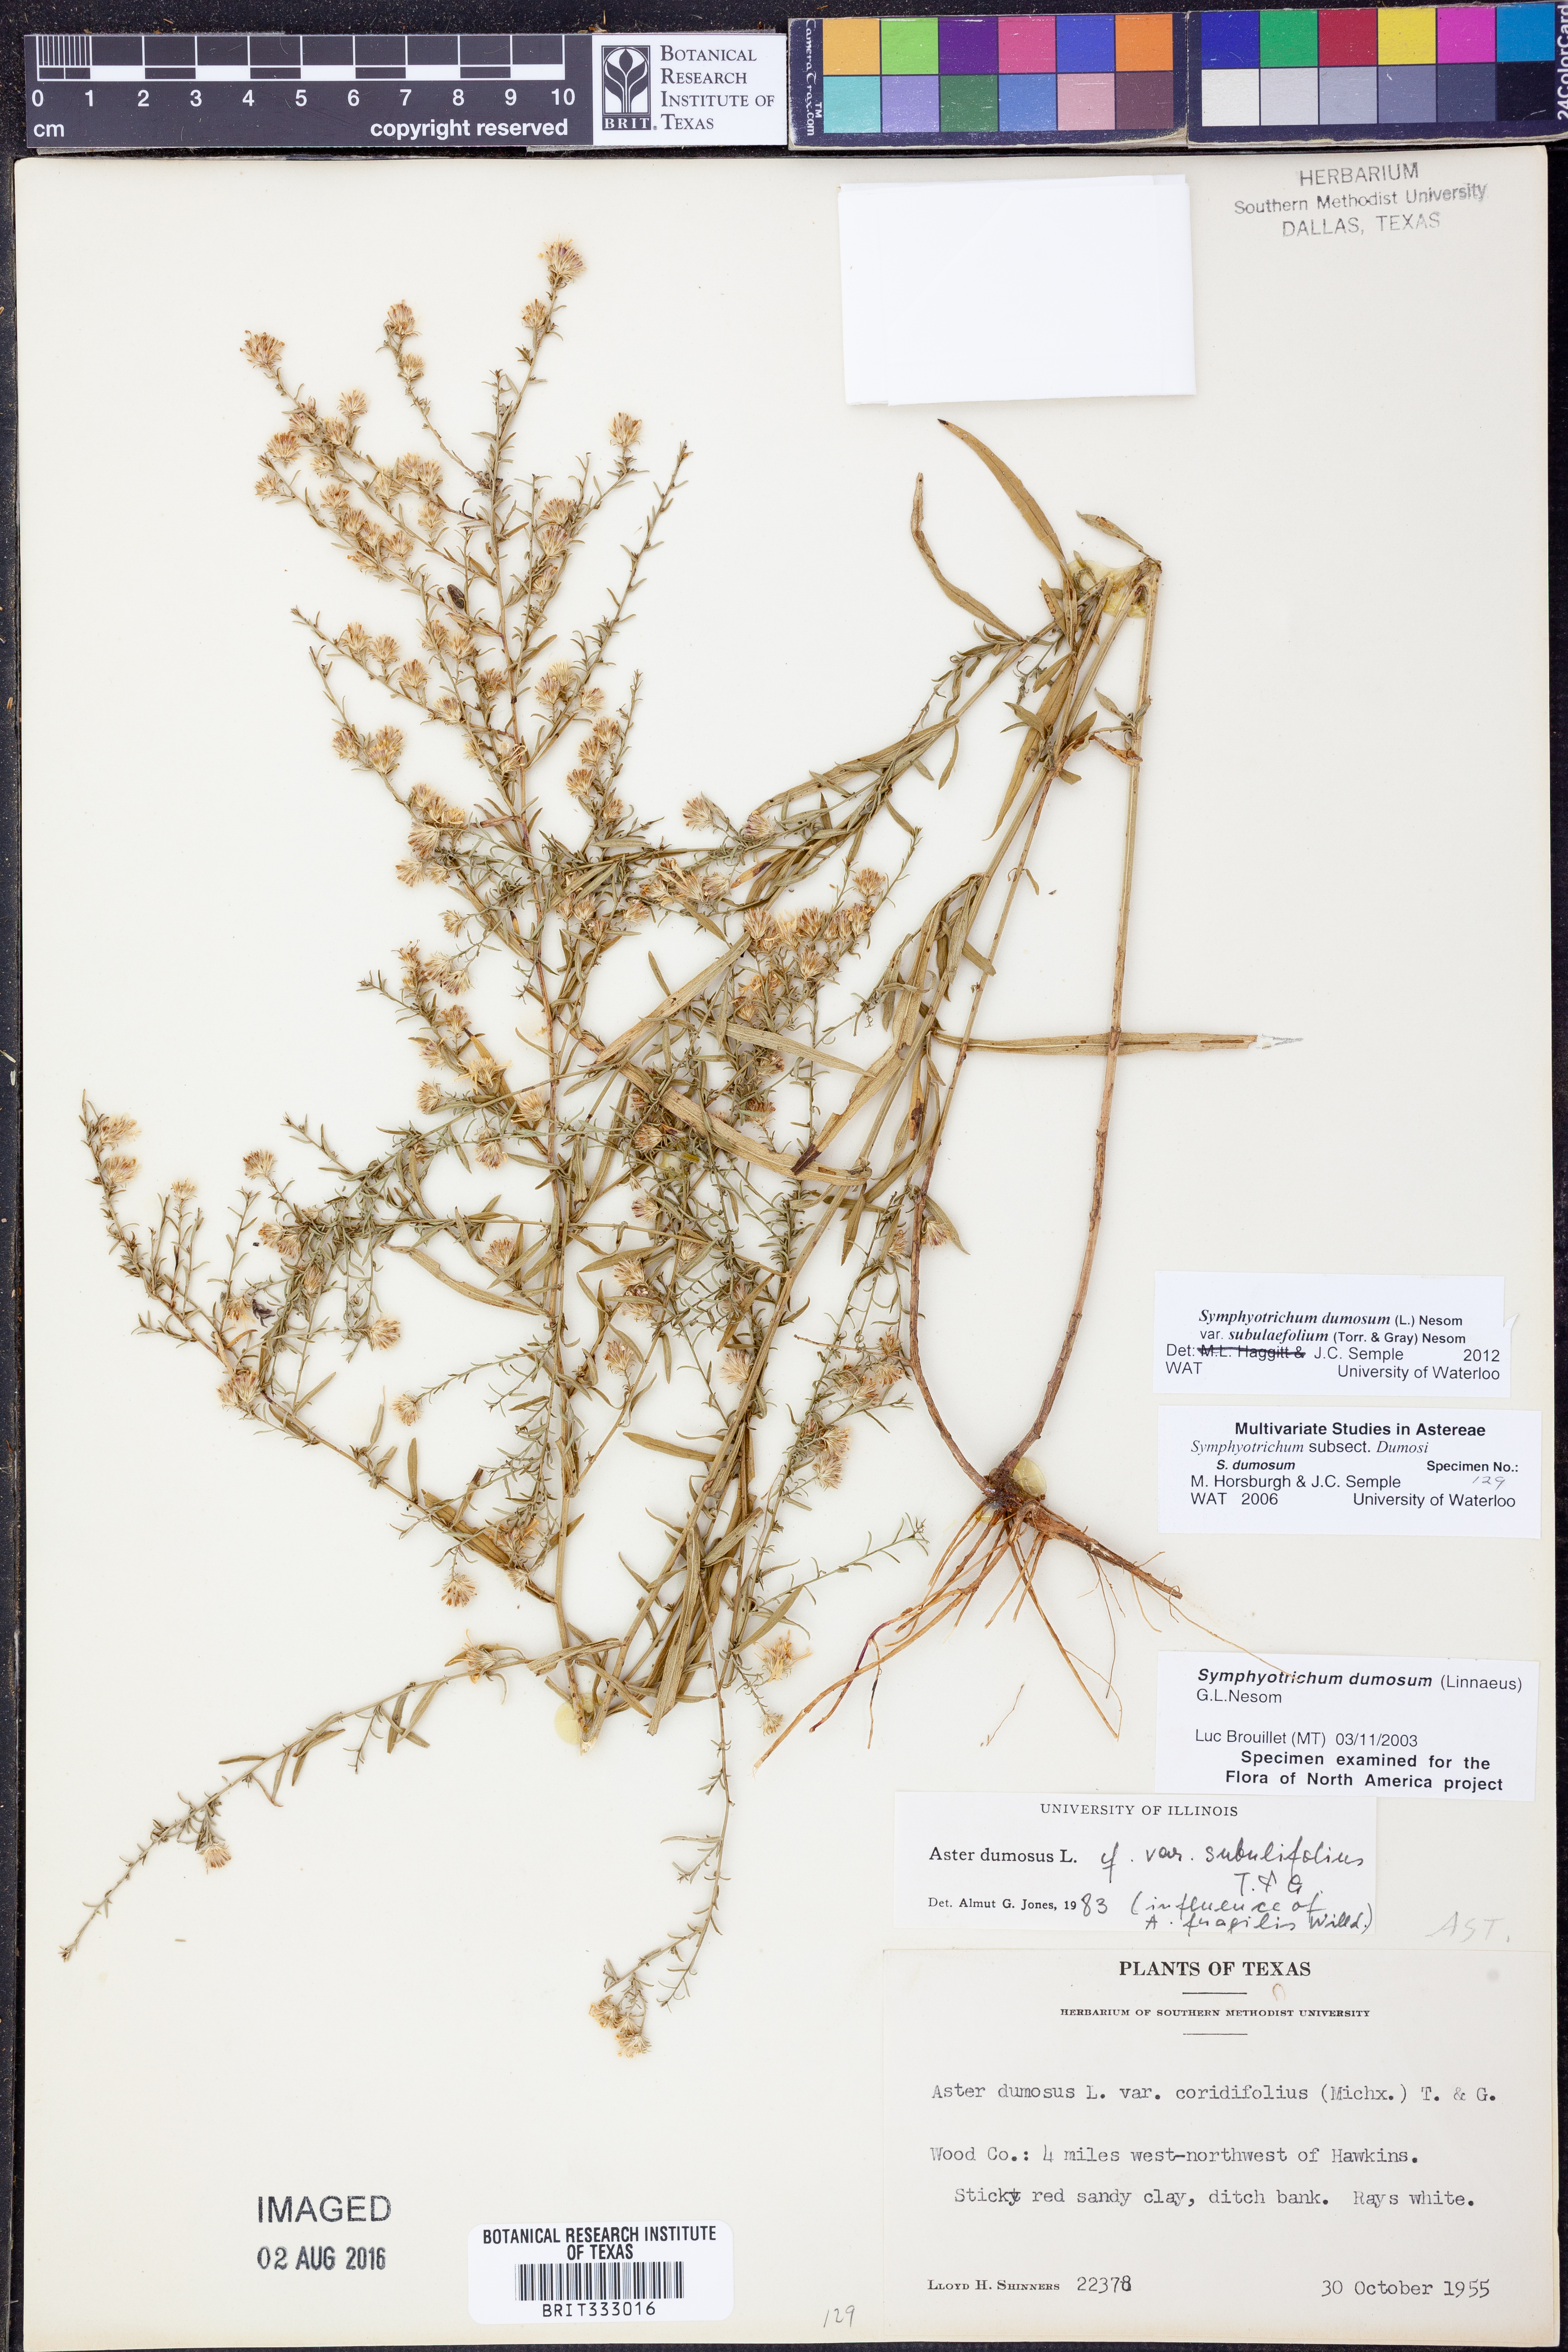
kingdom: Plantae
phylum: Tracheophyta
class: Magnoliopsida
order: Asterales
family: Asteraceae
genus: Symphyotrichum
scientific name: Symphyotrichum dumosum
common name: Bushy aster
